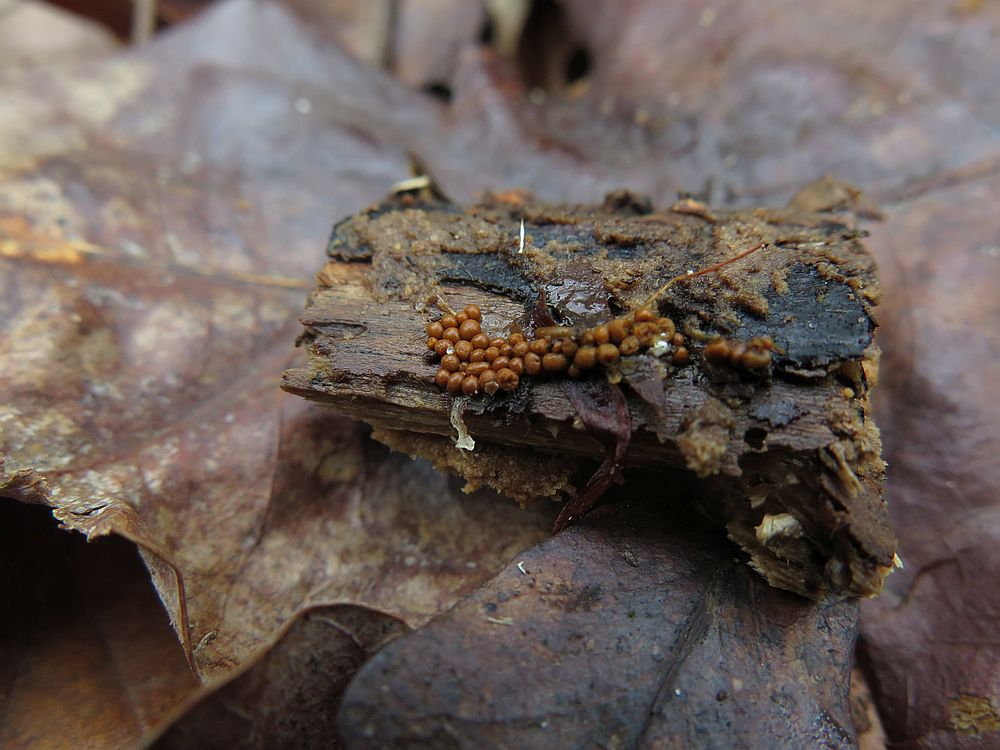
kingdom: Protozoa
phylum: Mycetozoa
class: Myxomycetes
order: Trichiales
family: Trichiaceae
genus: Trichia
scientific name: Trichia
